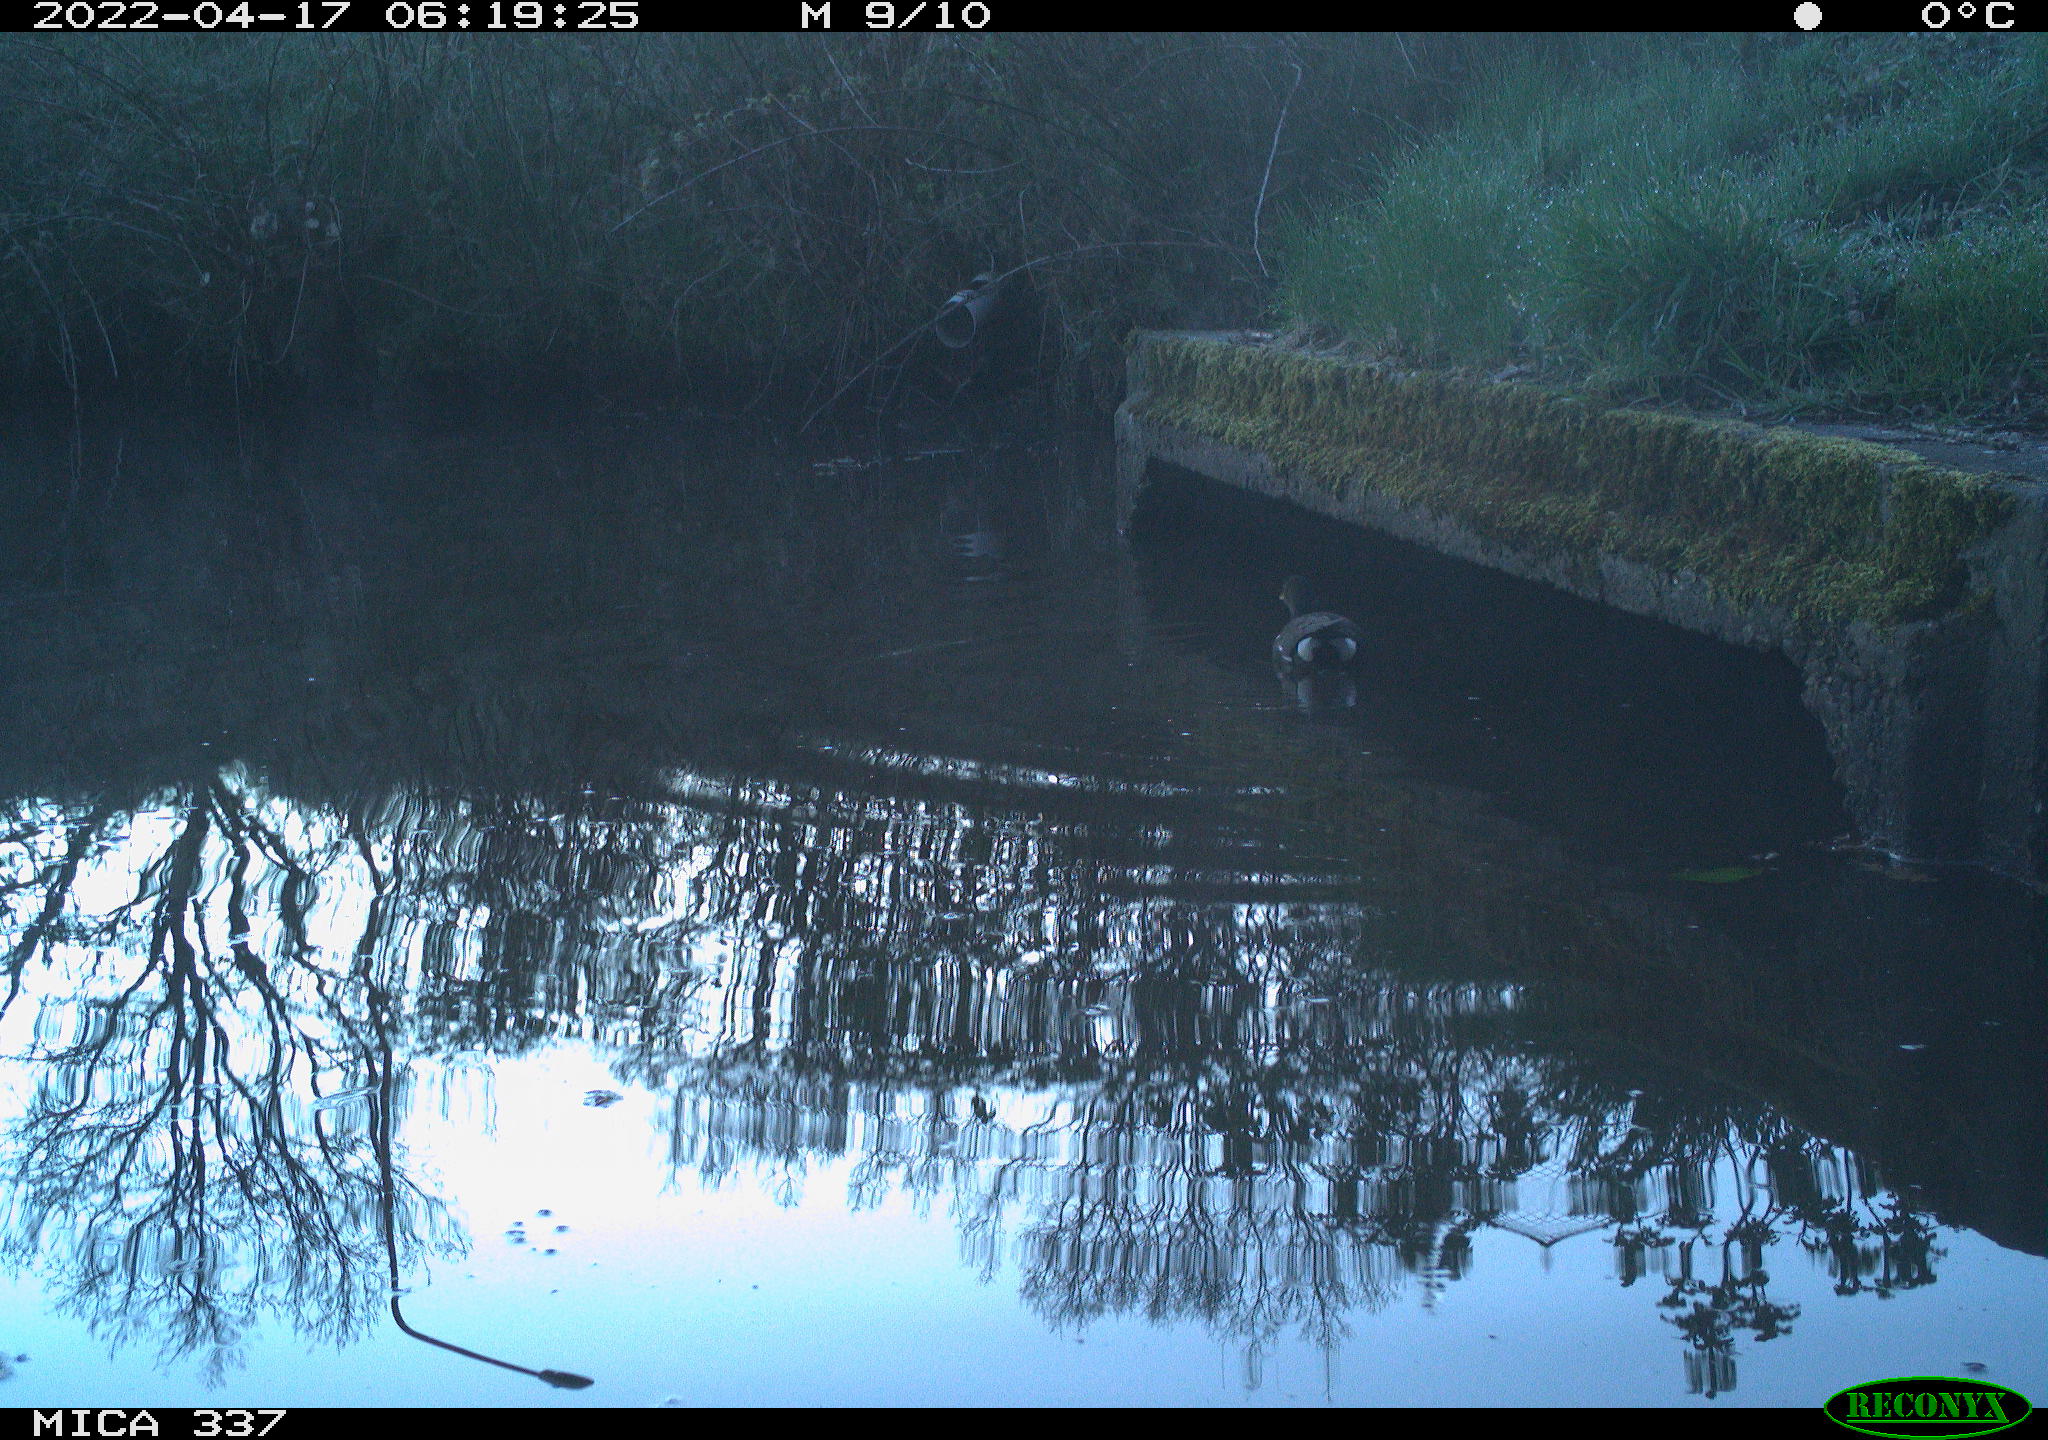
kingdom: Animalia
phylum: Chordata
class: Aves
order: Gruiformes
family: Rallidae
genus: Gallinula
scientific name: Gallinula chloropus
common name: Common moorhen
